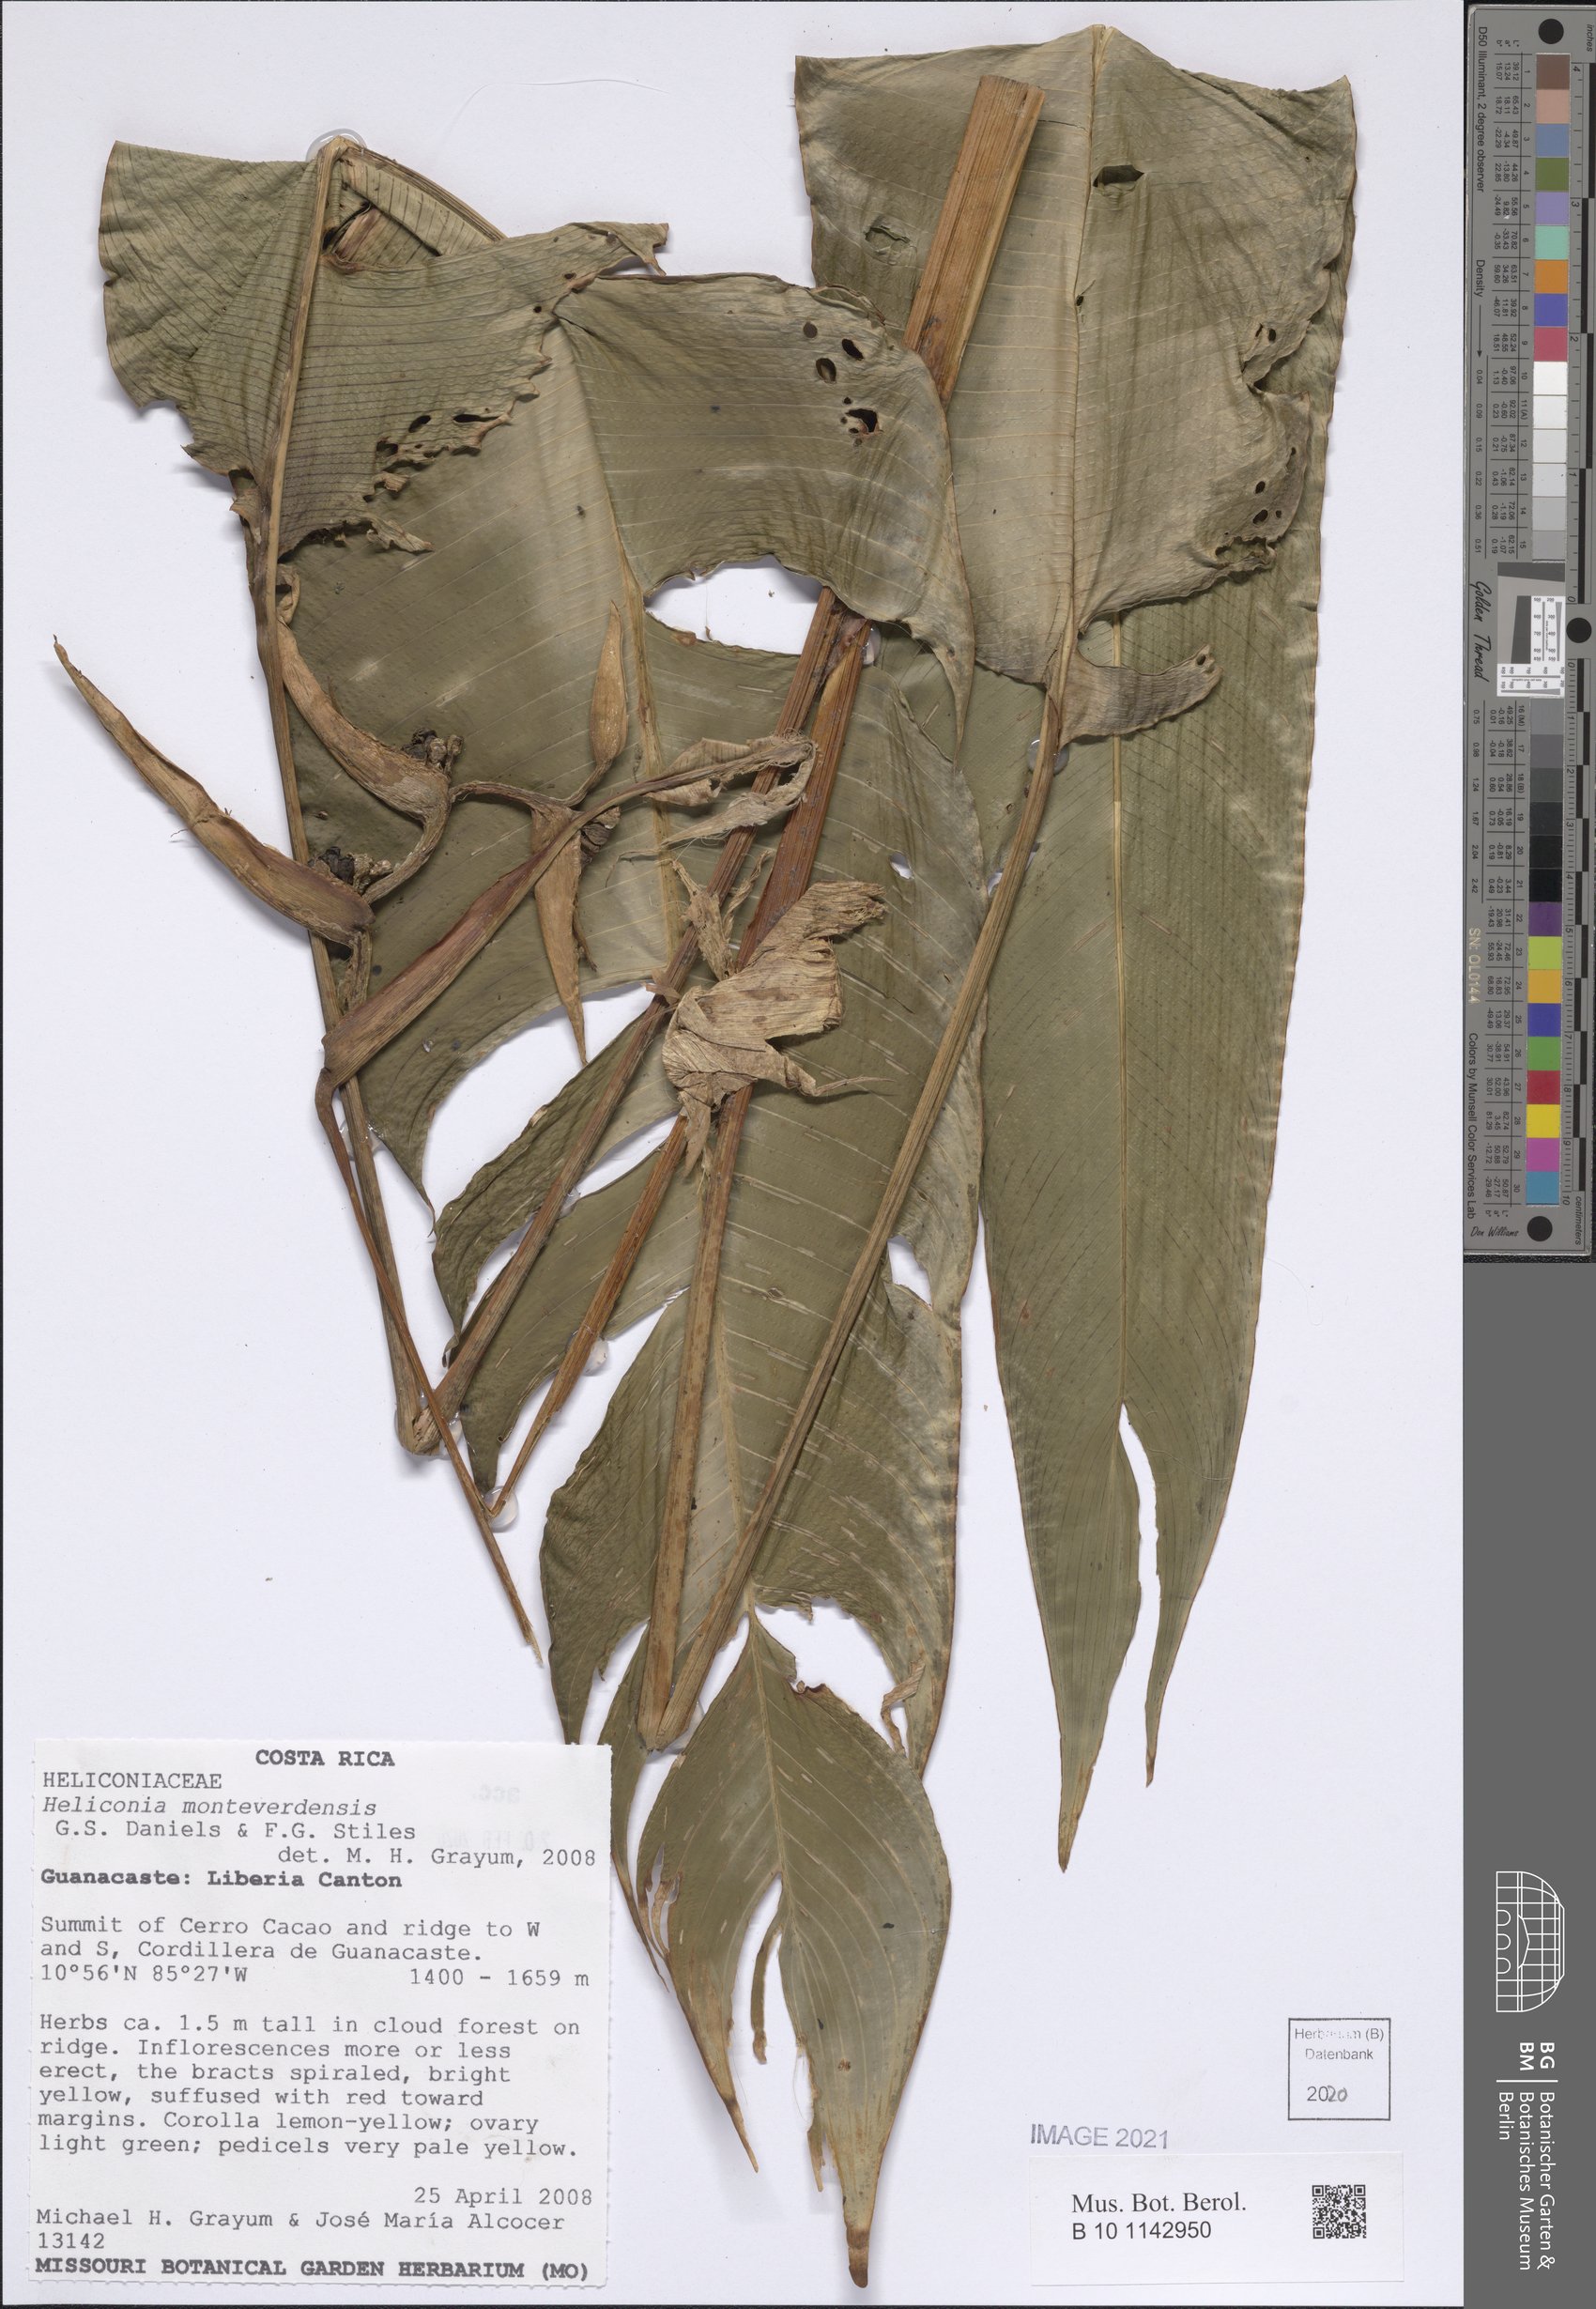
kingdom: Plantae
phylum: Tracheophyta
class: Liliopsida
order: Zingiberales
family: Heliconiaceae
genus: Heliconia
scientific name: Heliconia monteverdensis
